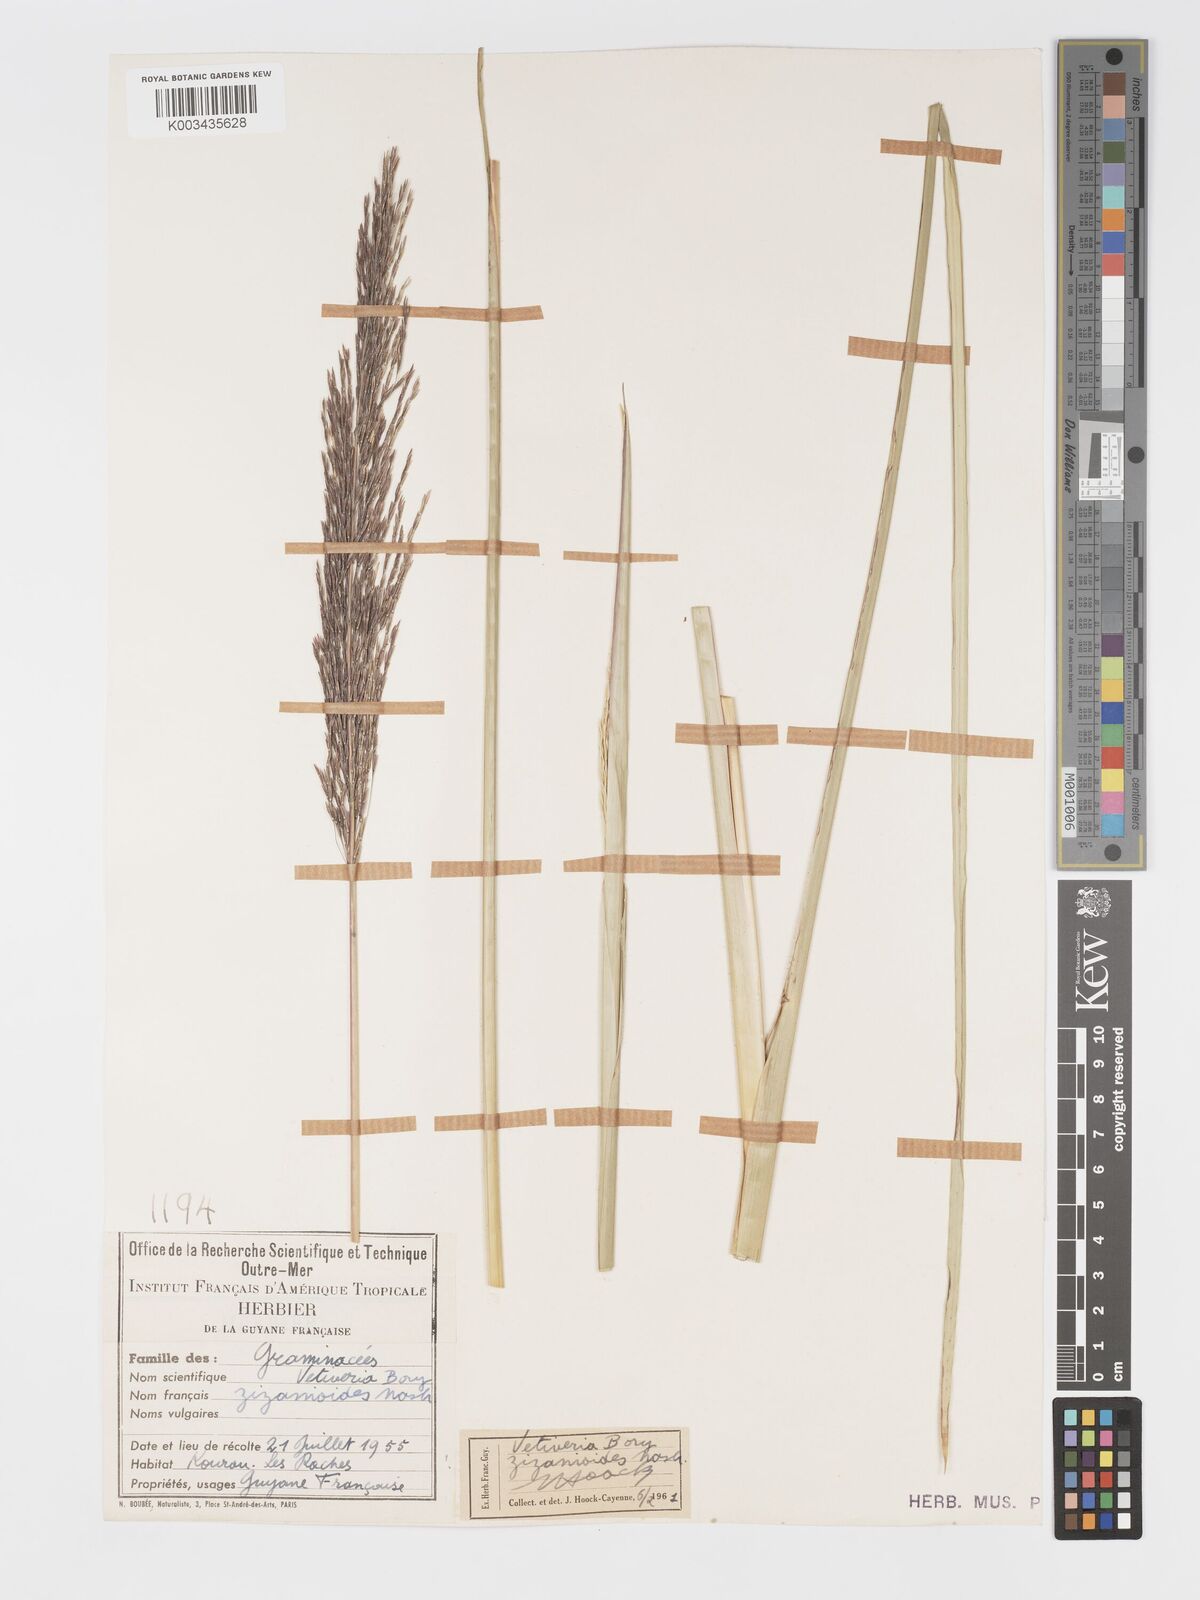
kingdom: Plantae
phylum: Tracheophyta
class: Liliopsida
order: Poales
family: Poaceae
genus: Chrysopogon
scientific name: Chrysopogon zizanioides
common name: False beardgrass
